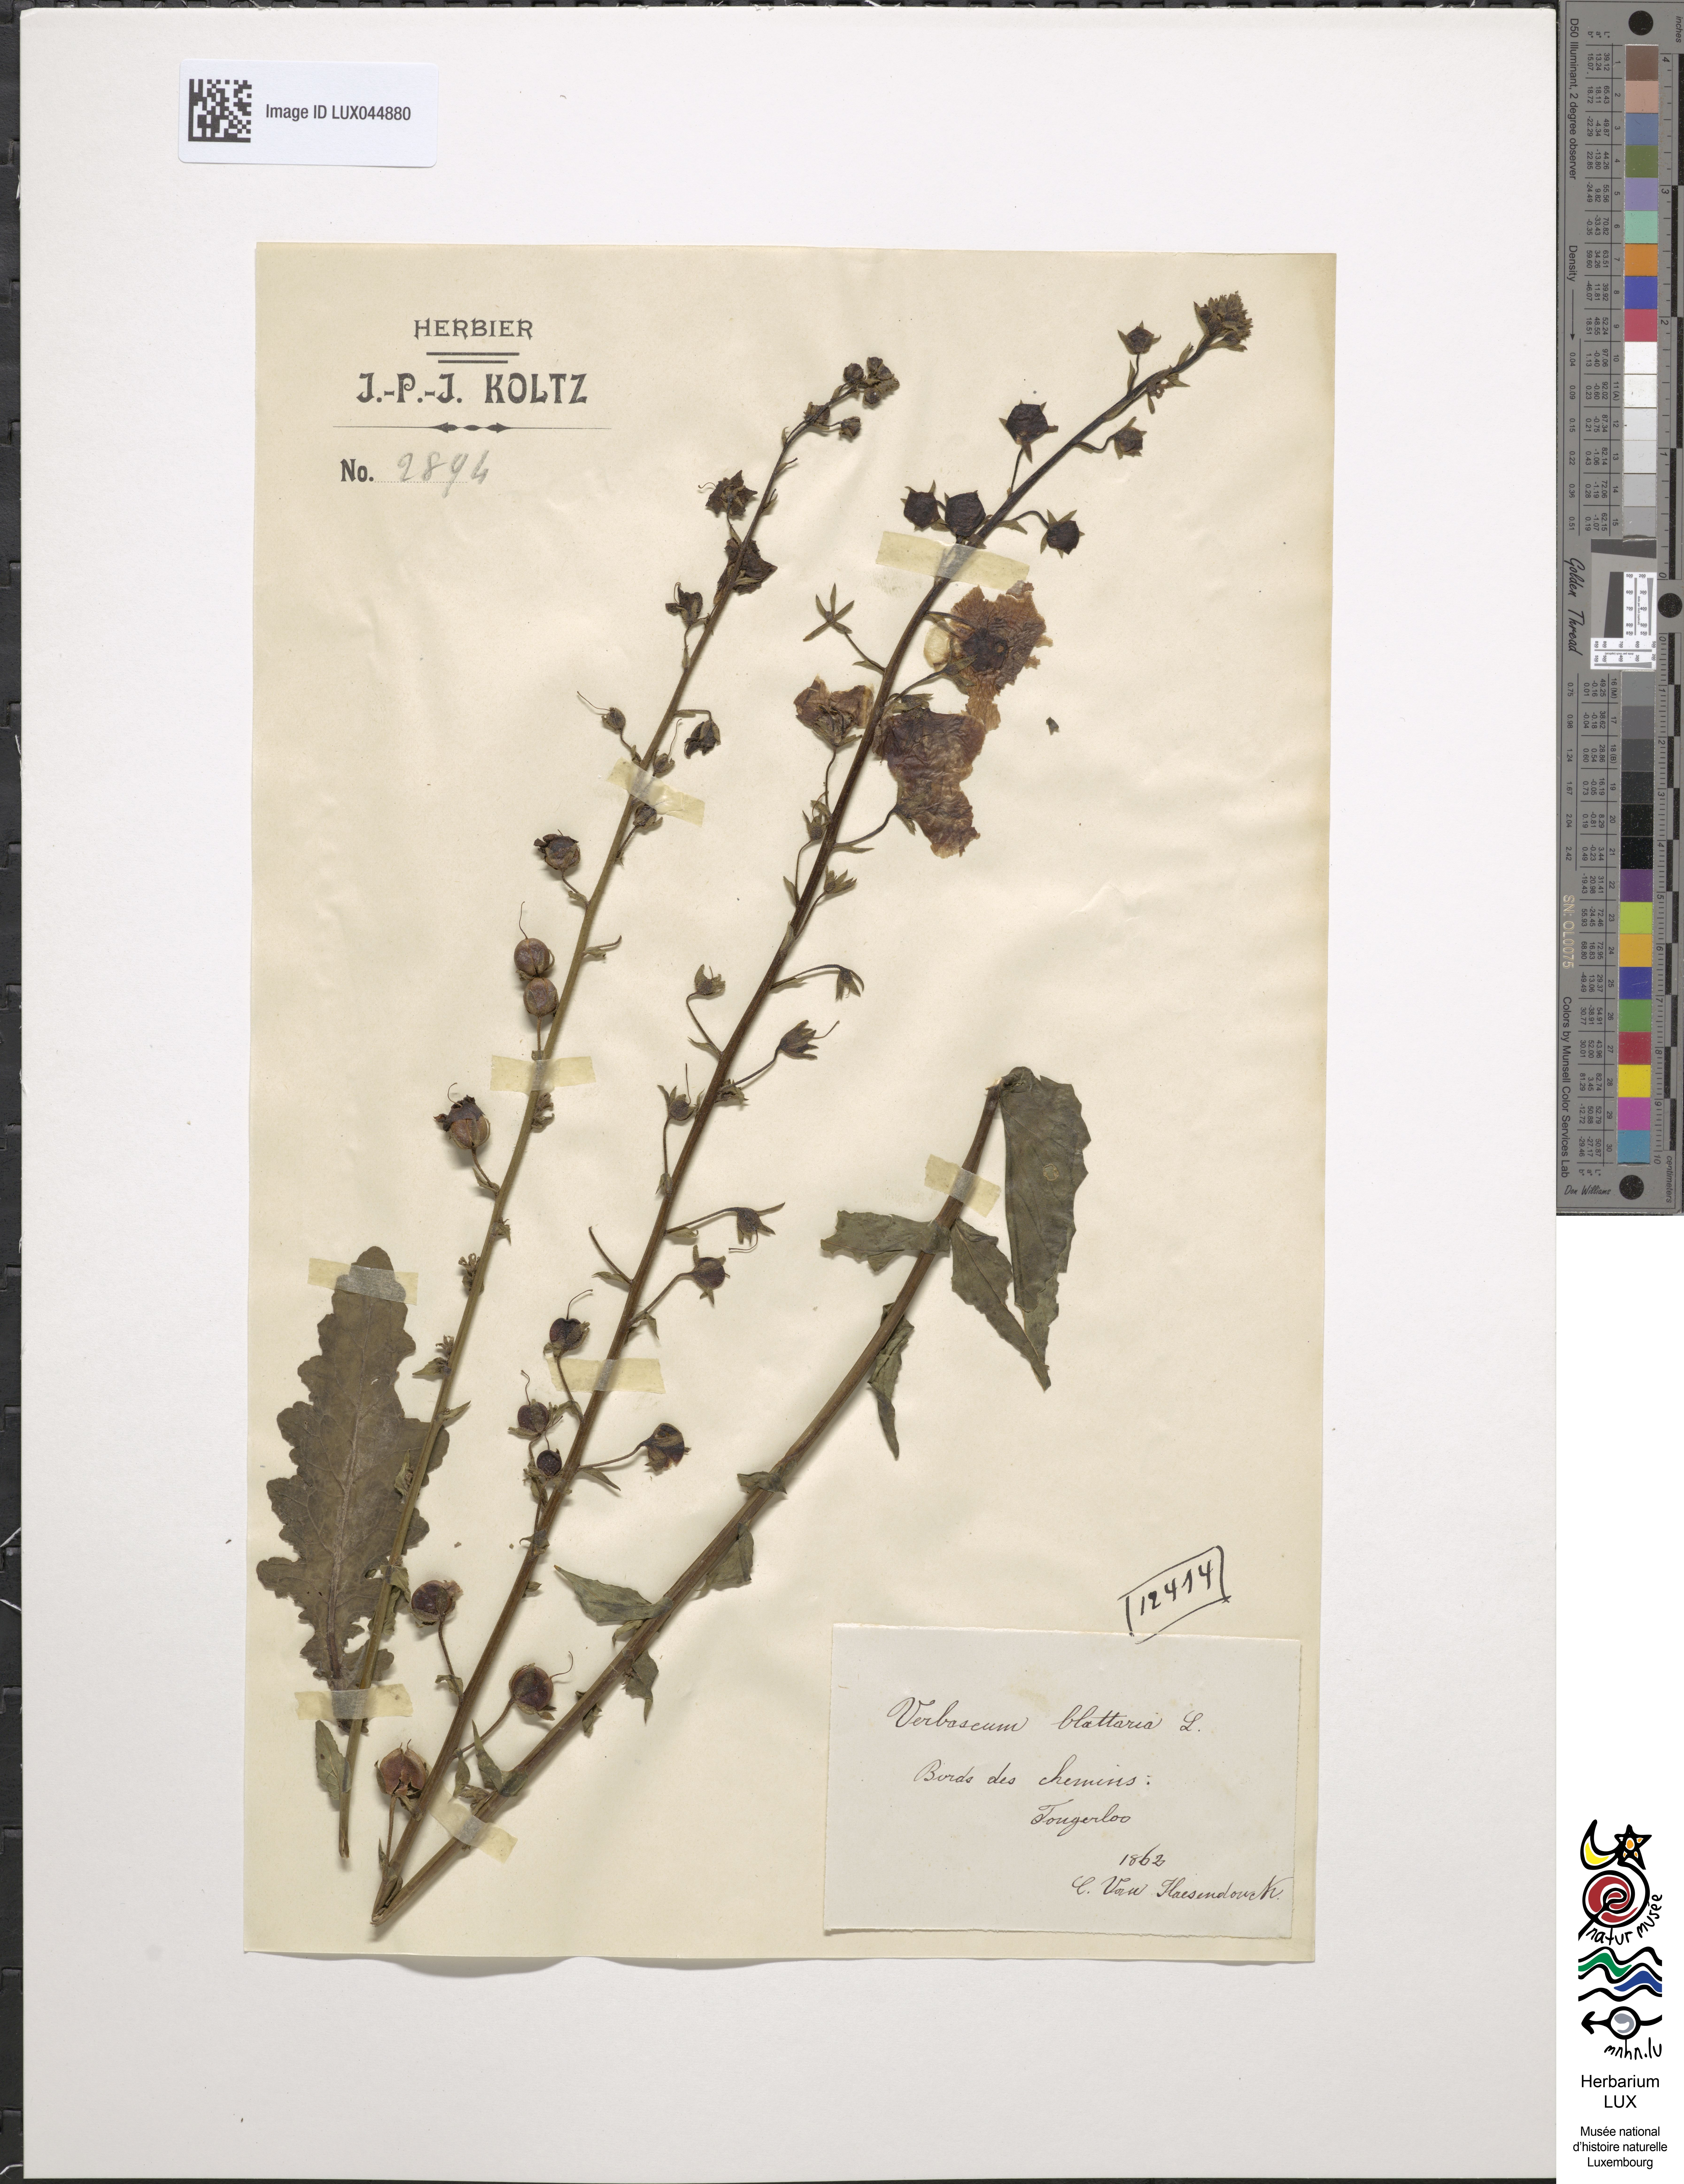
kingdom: Plantae
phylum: Tracheophyta
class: Magnoliopsida
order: Lamiales
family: Scrophulariaceae
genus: Verbascum
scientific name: Verbascum blattaria
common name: Moth mullein
